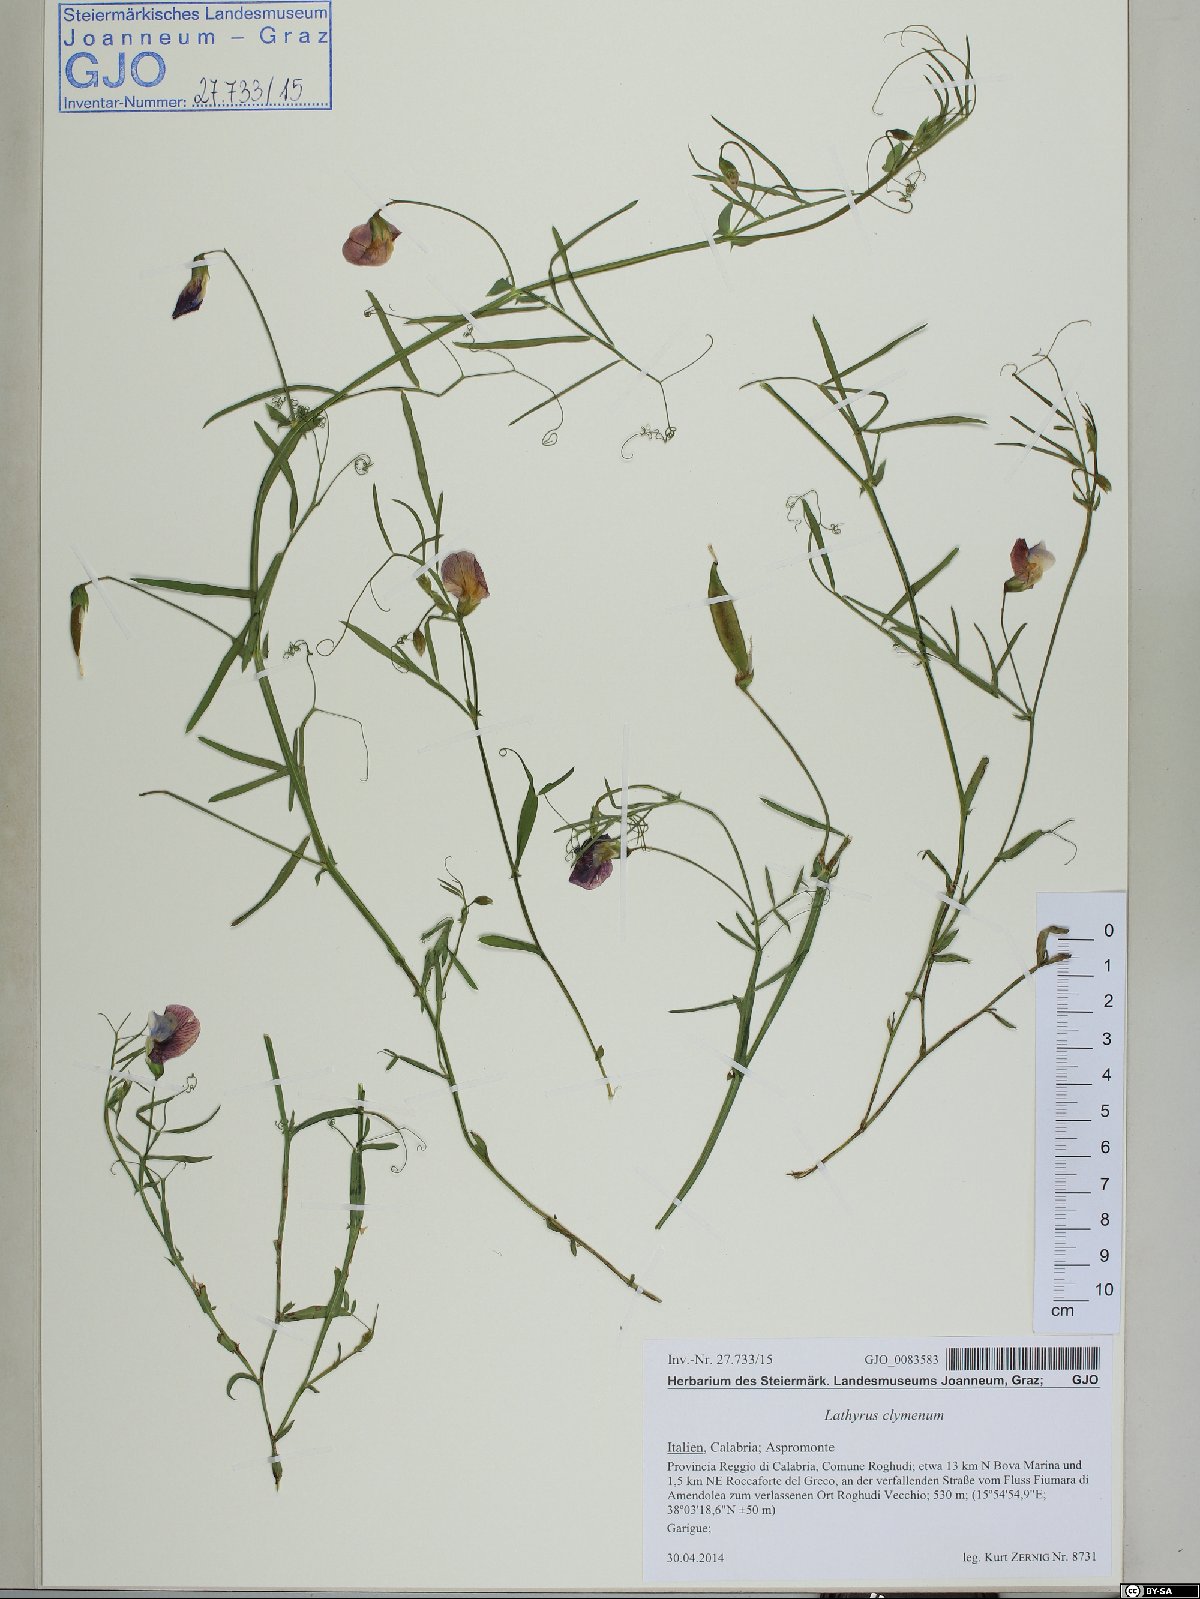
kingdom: Plantae
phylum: Tracheophyta
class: Magnoliopsida
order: Fabales
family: Fabaceae
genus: Lathyrus
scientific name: Lathyrus clymenum
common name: Spanish vetchling
